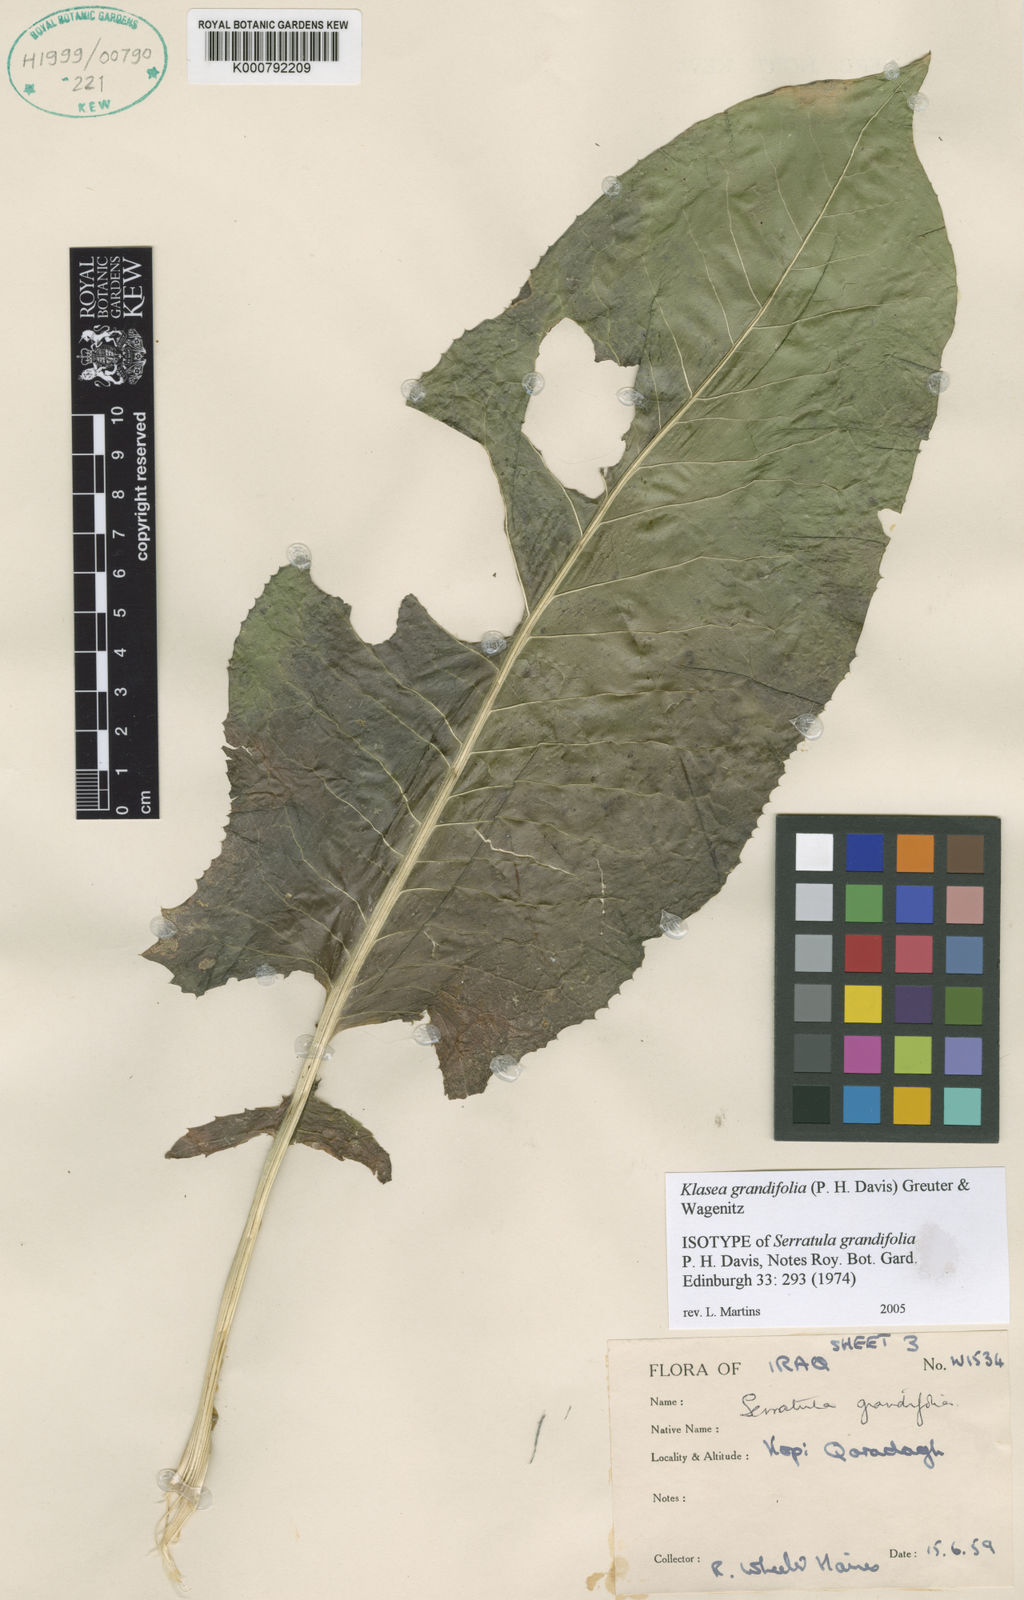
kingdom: Plantae
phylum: Tracheophyta
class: Magnoliopsida
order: Asterales
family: Asteraceae
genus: Klasea
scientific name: Klasea grandifolia
